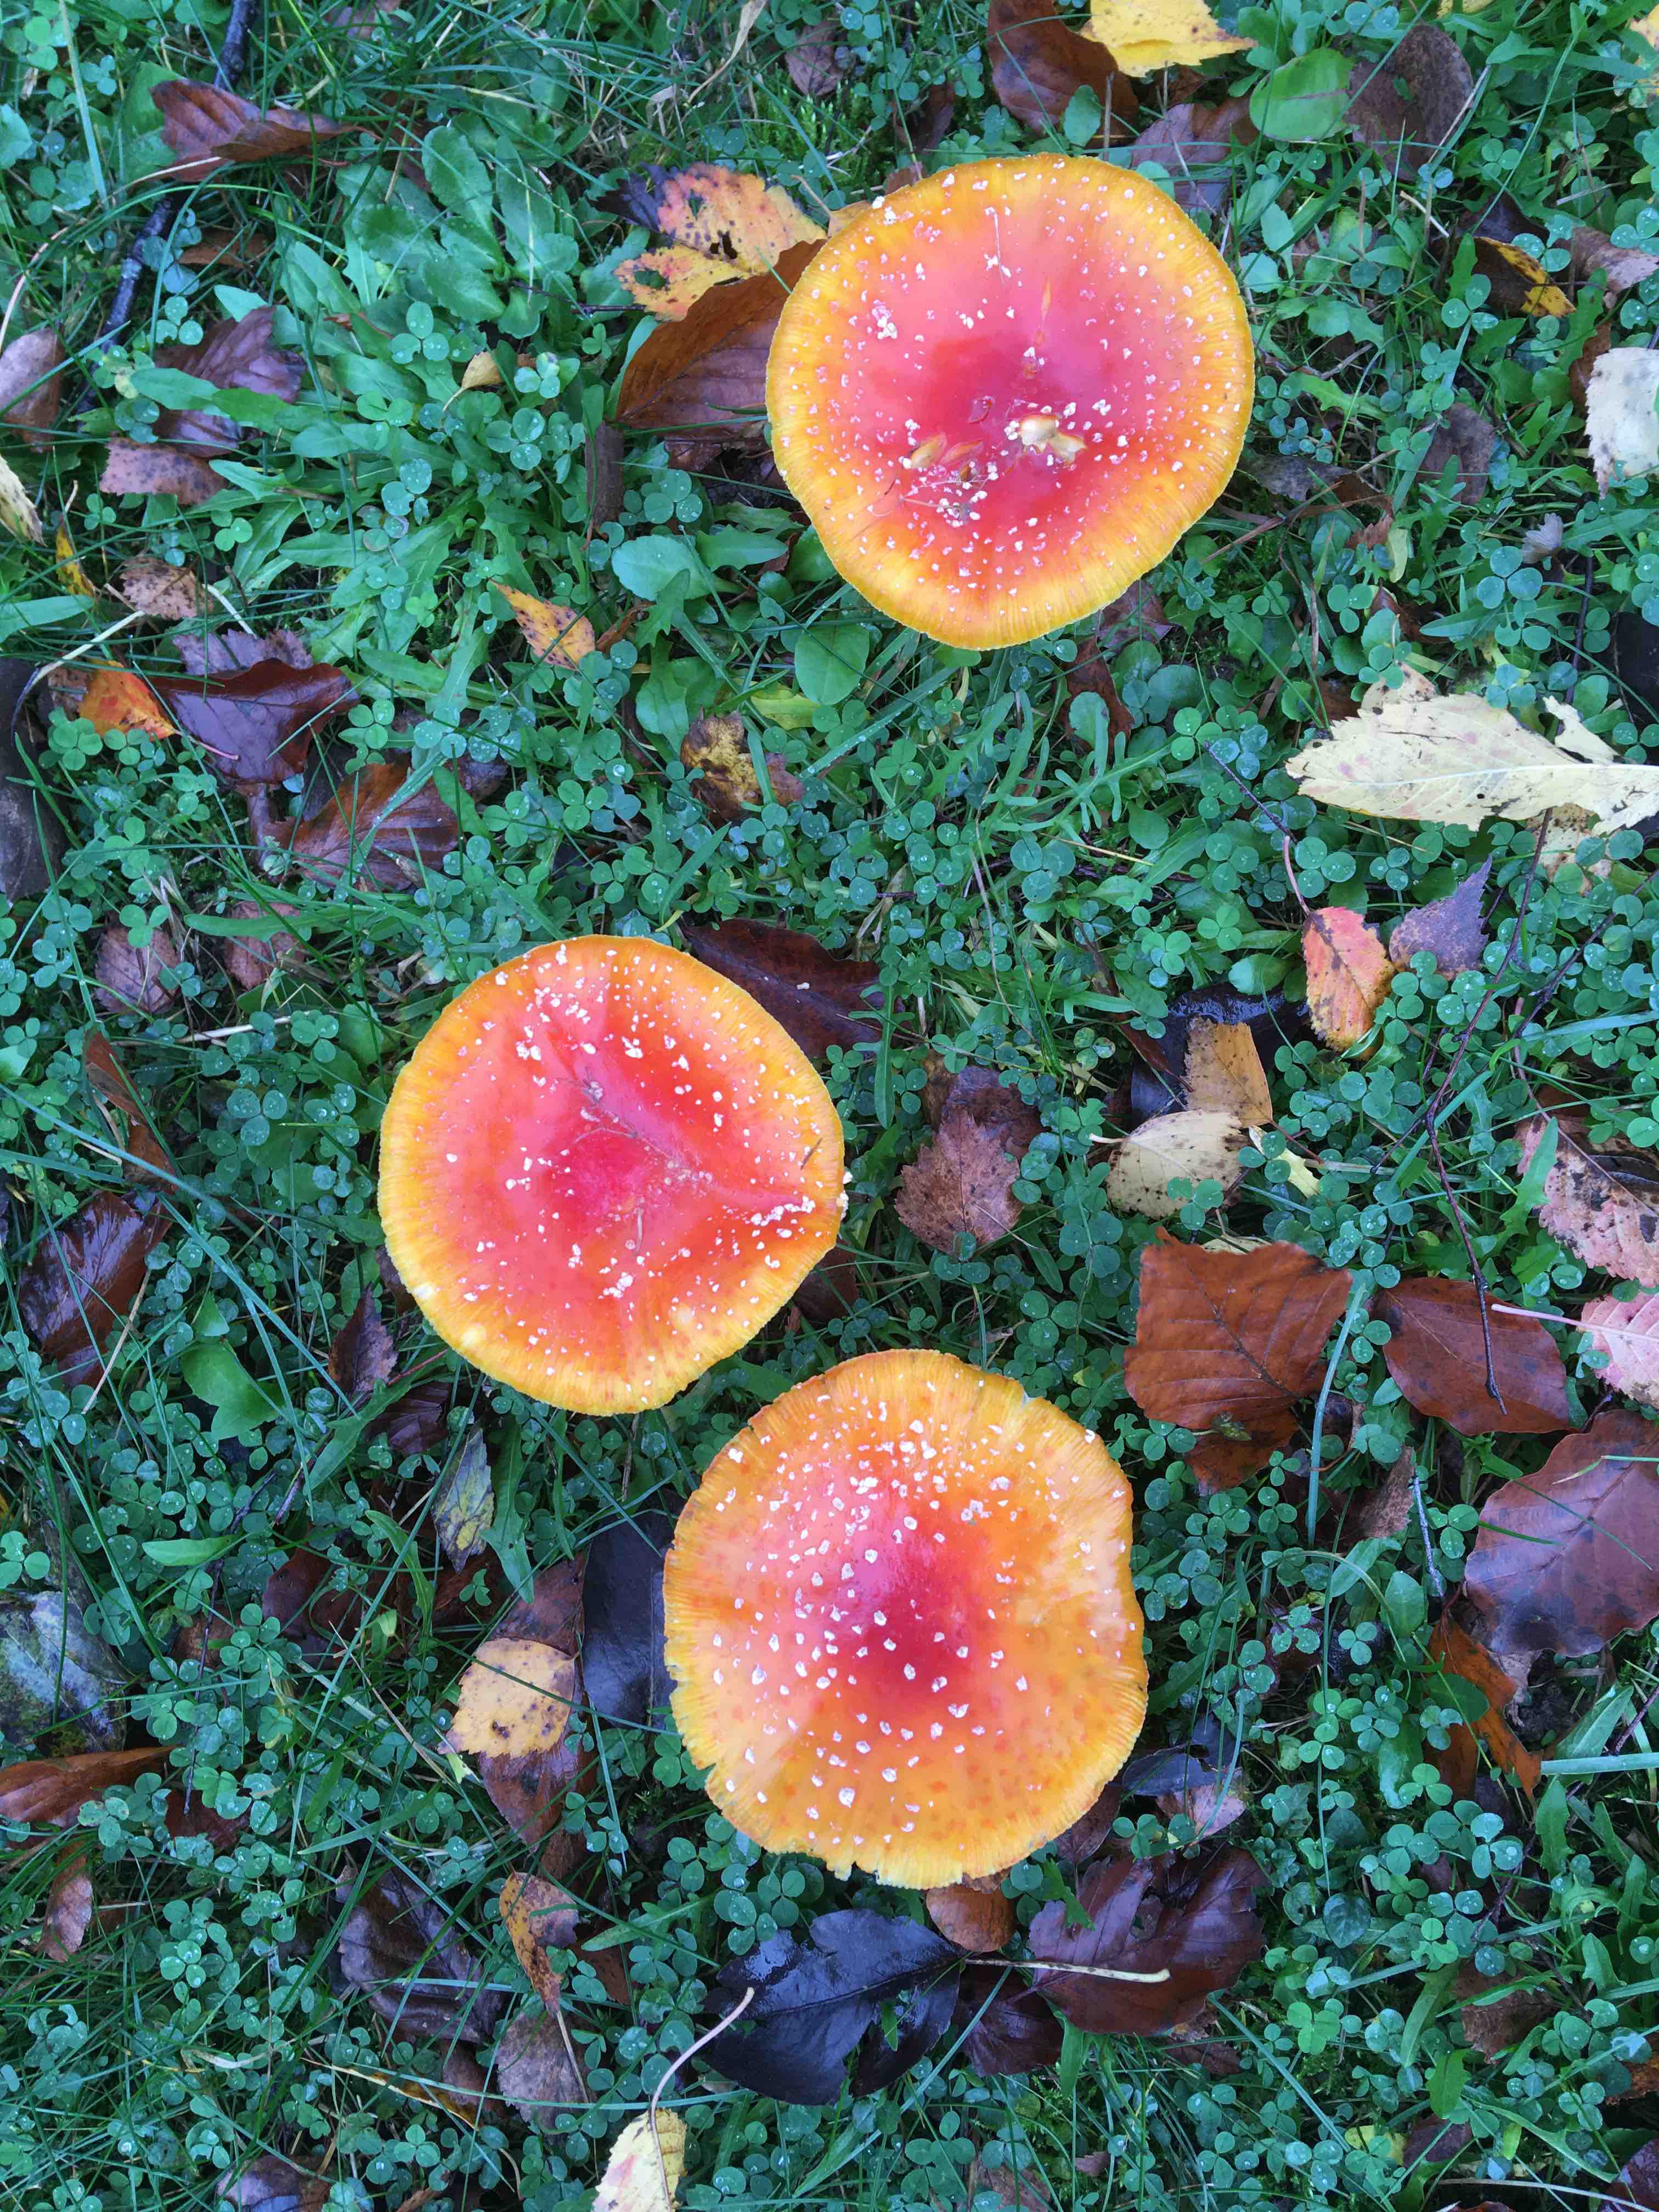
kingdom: Fungi
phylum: Basidiomycota
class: Agaricomycetes
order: Agaricales
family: Amanitaceae
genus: Amanita
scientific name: Amanita muscaria
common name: rød fluesvamp
